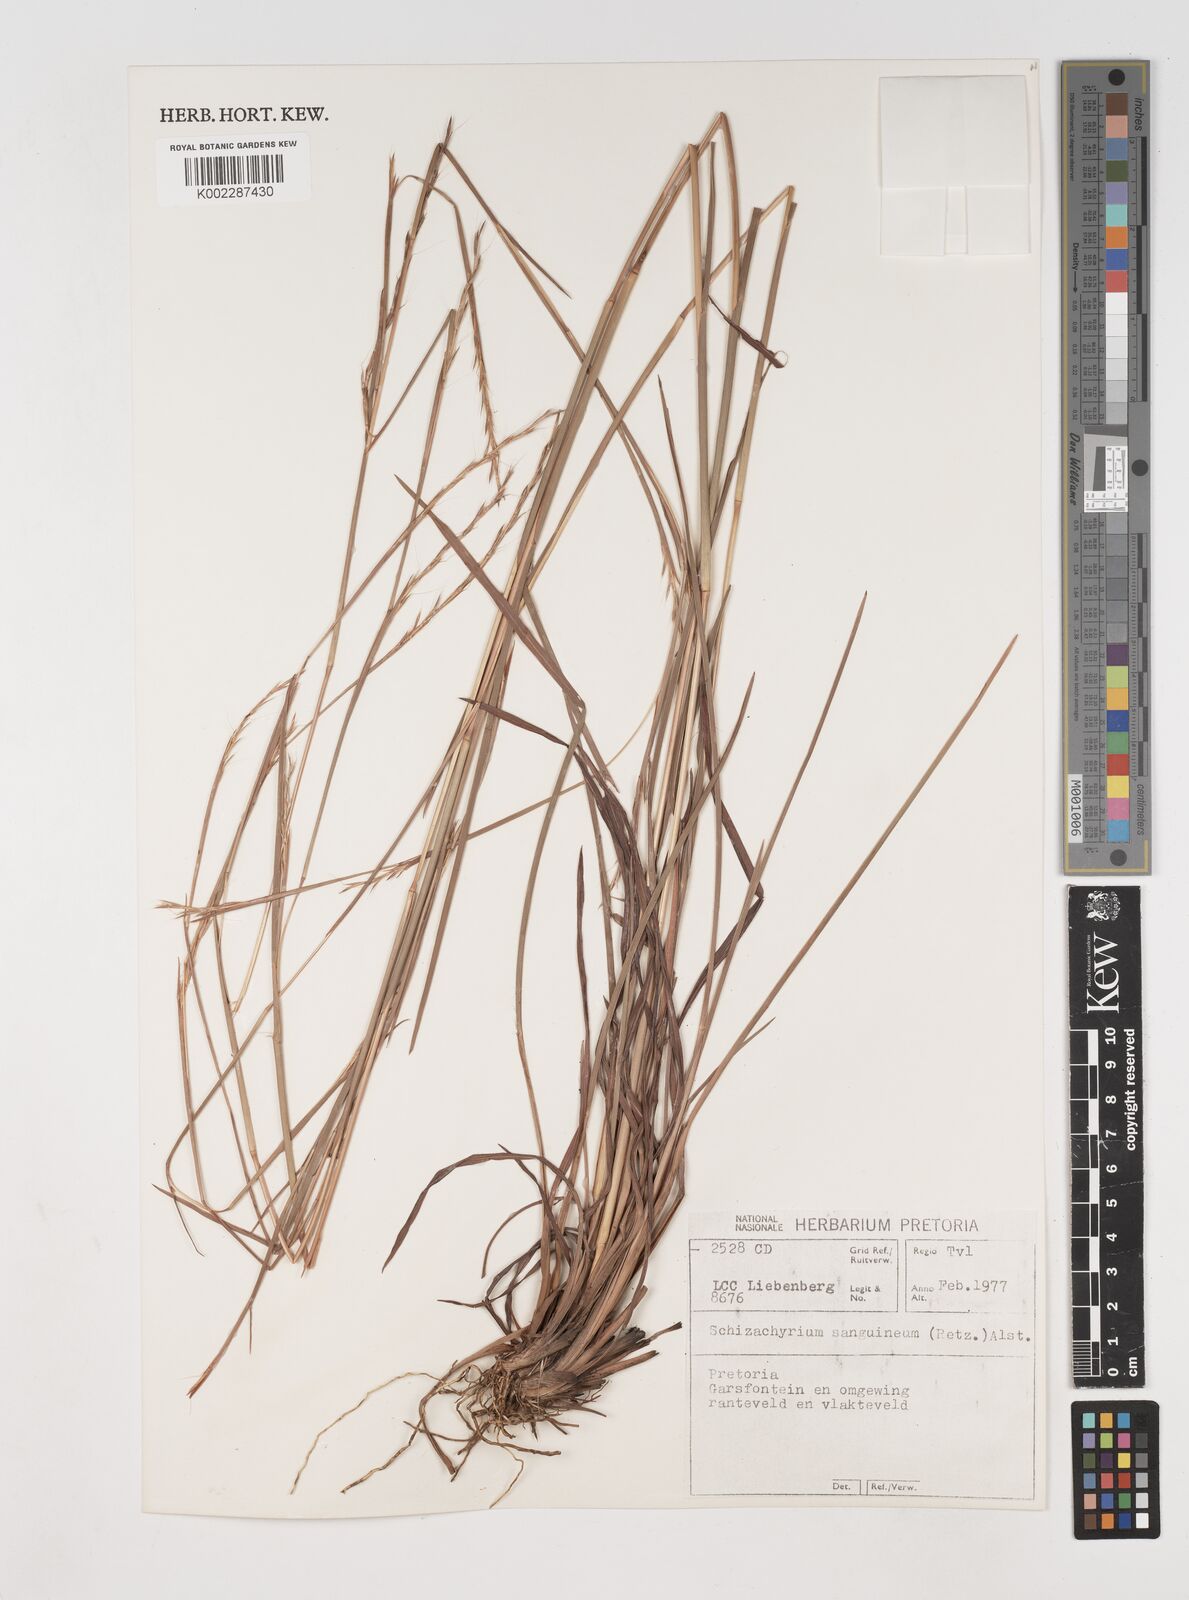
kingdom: Plantae
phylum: Tracheophyta
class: Liliopsida
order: Poales
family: Poaceae
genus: Schizachyrium
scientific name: Schizachyrium sanguineum
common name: Crimson bluestem
